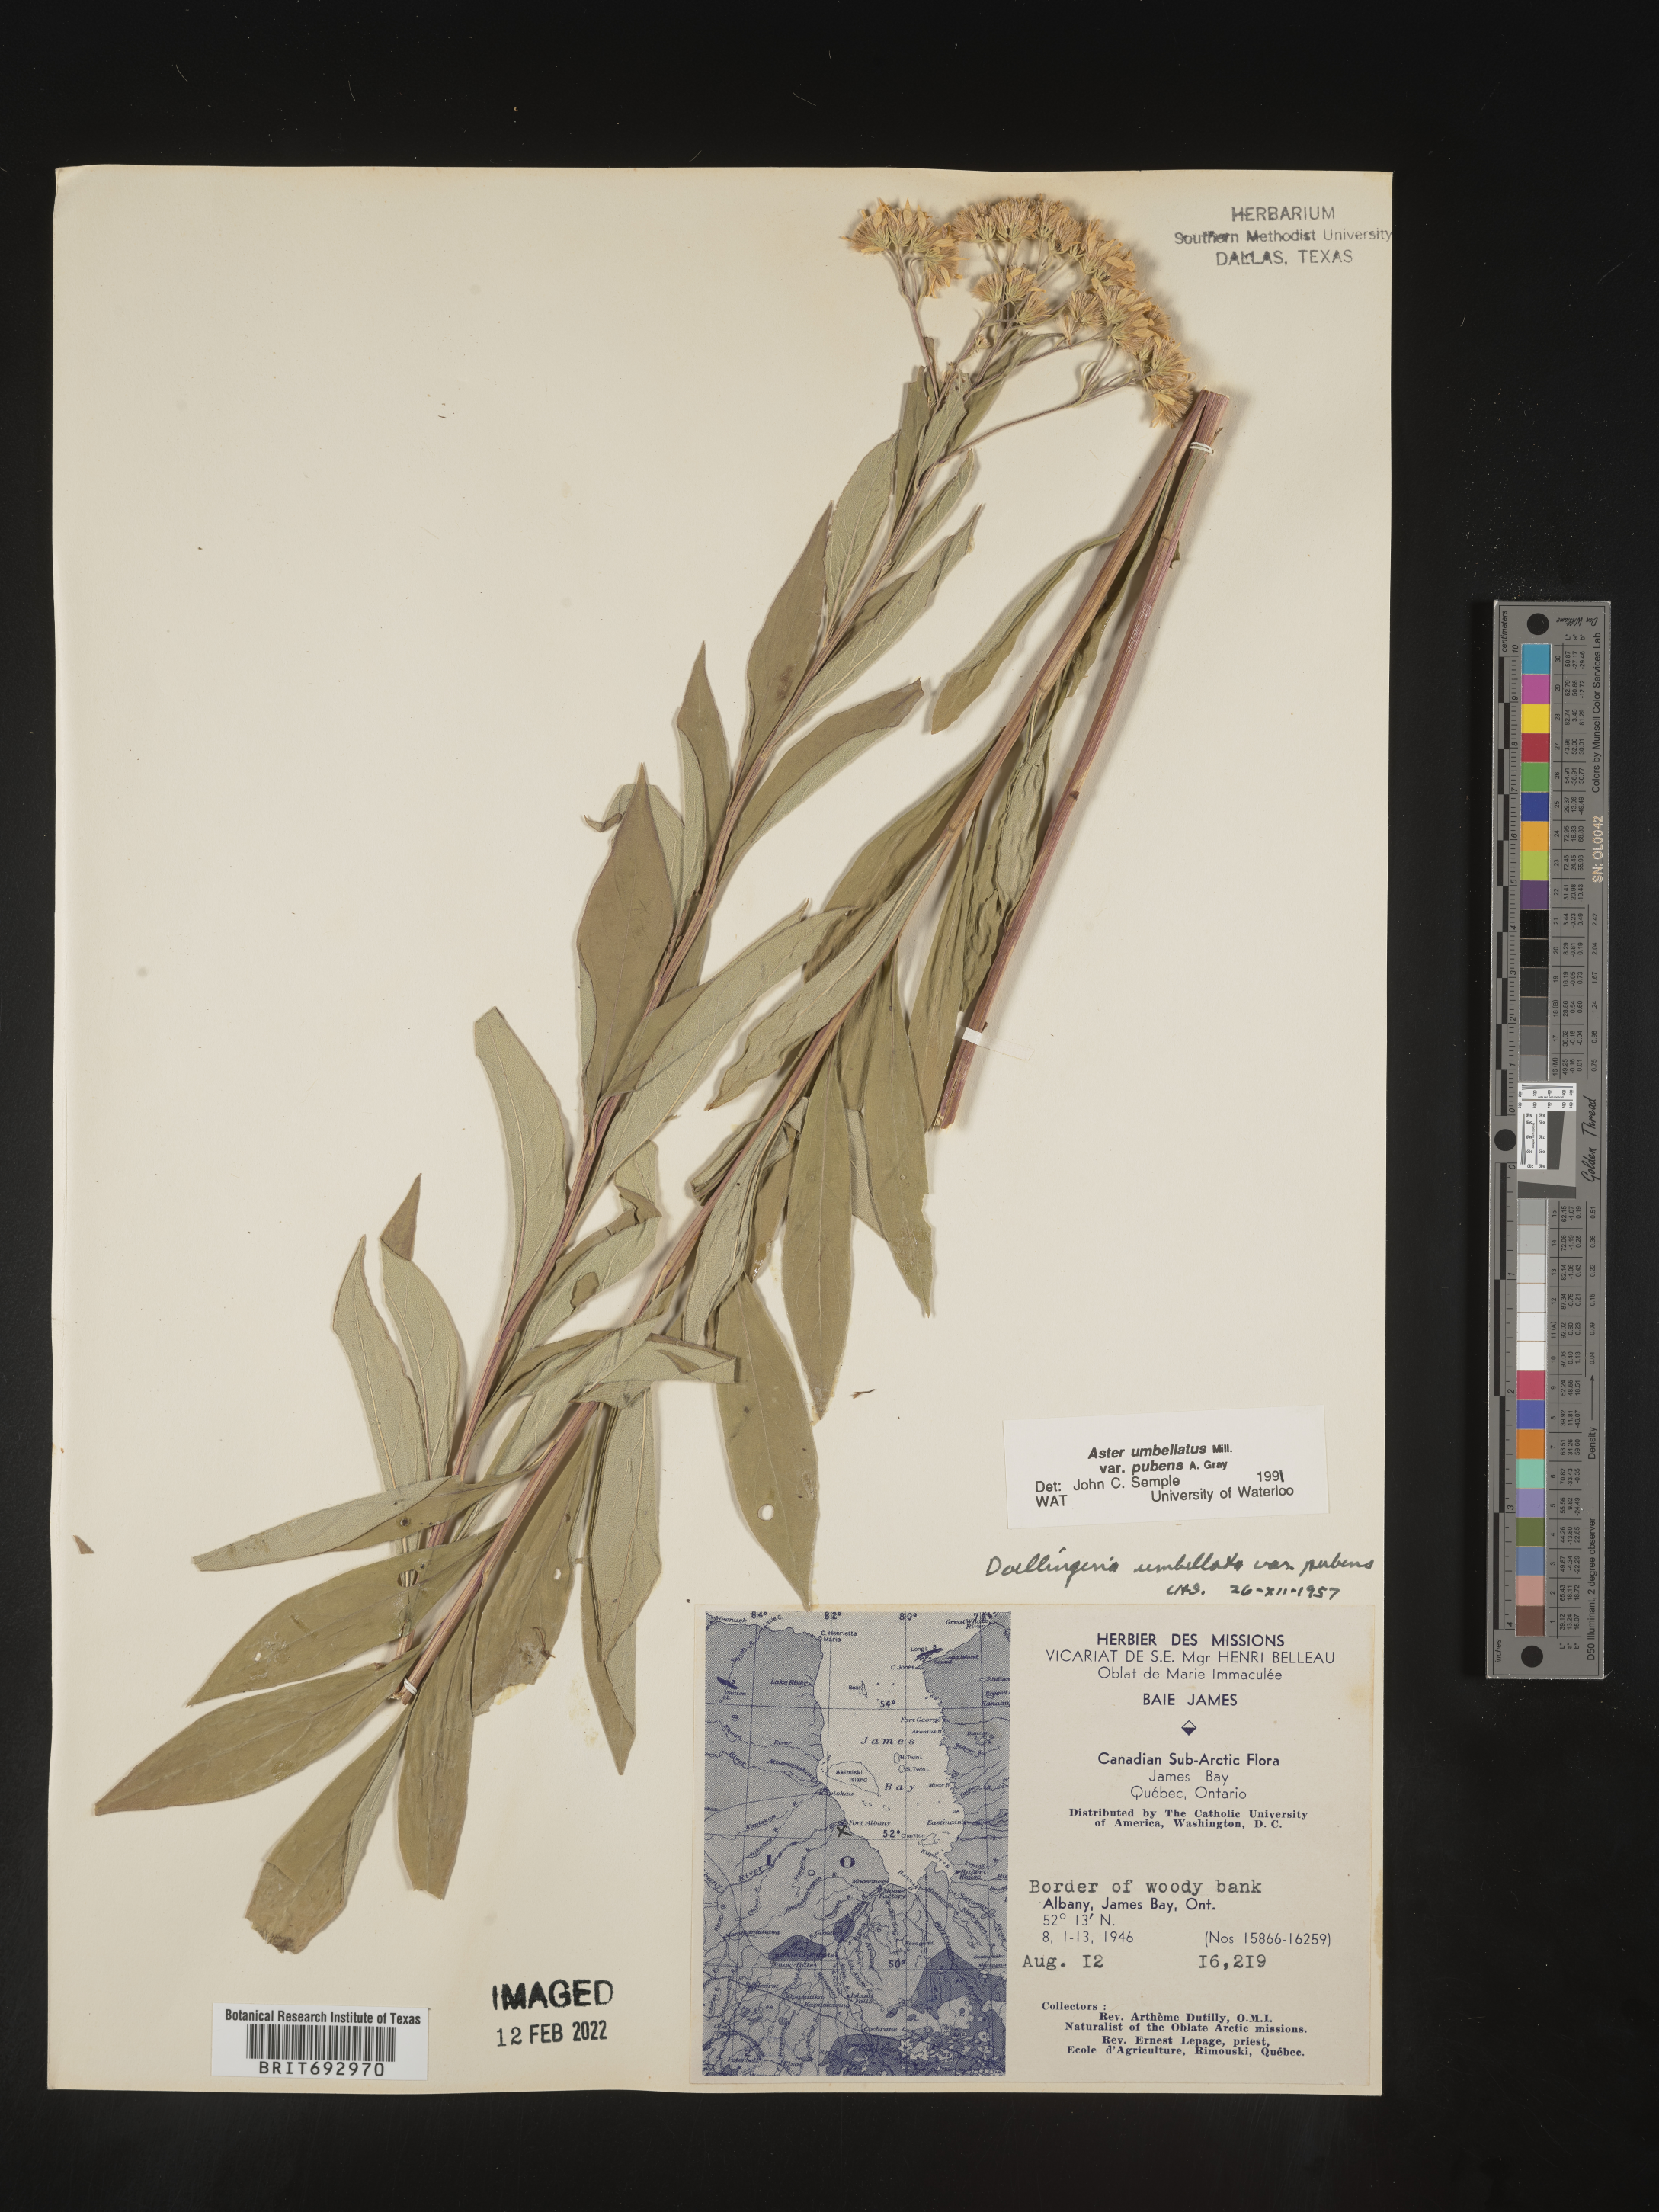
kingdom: Plantae
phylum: Tracheophyta
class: Magnoliopsida
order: Asterales
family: Asteraceae
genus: Doellingeria
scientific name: Doellingeria umbellata
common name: Flat-top white aster
